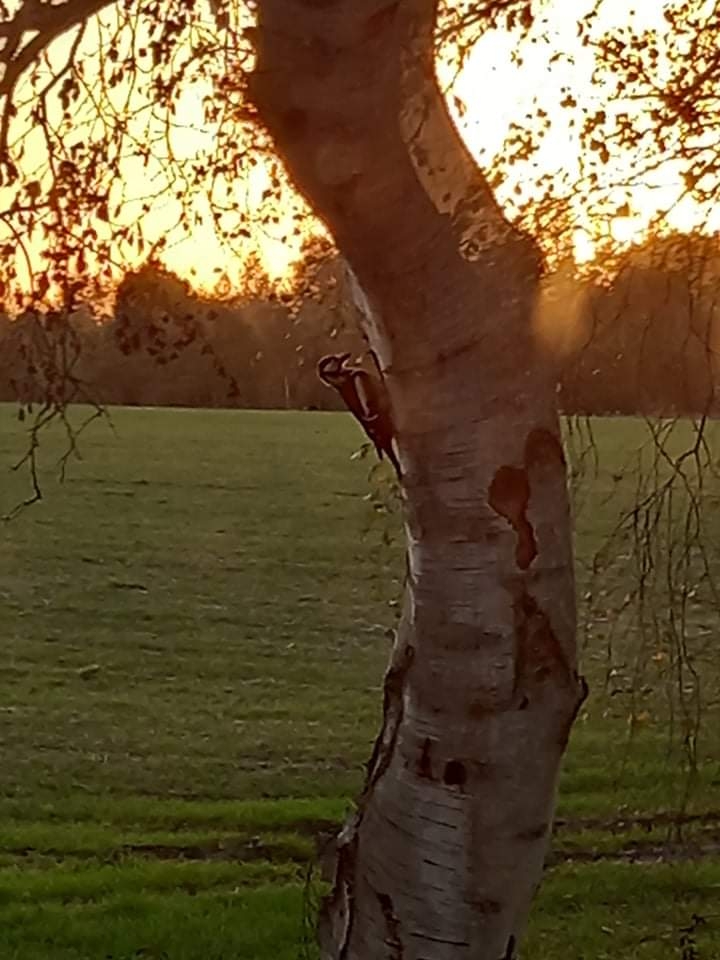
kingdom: Animalia
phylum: Chordata
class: Aves
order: Piciformes
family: Picidae
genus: Dendrocopos
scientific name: Dendrocopos major
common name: Stor flagspætte
